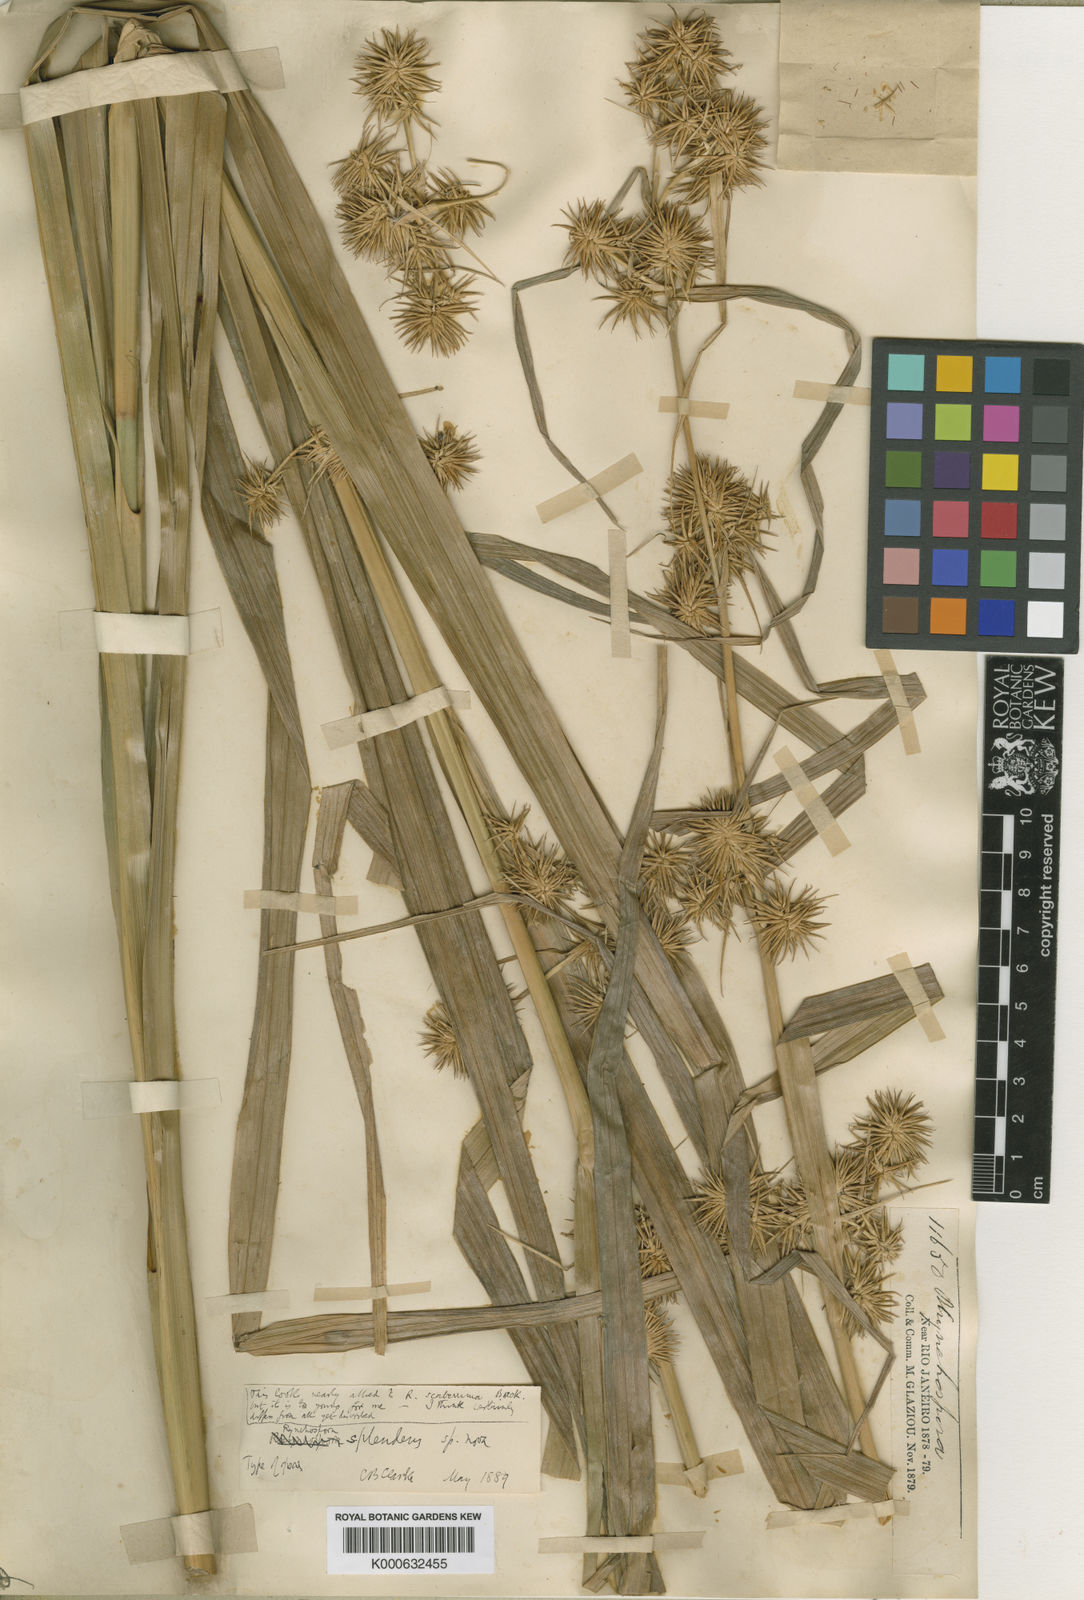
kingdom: Plantae
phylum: Tracheophyta
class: Liliopsida
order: Poales
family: Cyperaceae
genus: Rhynchospora
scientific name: Rhynchospora splendens
